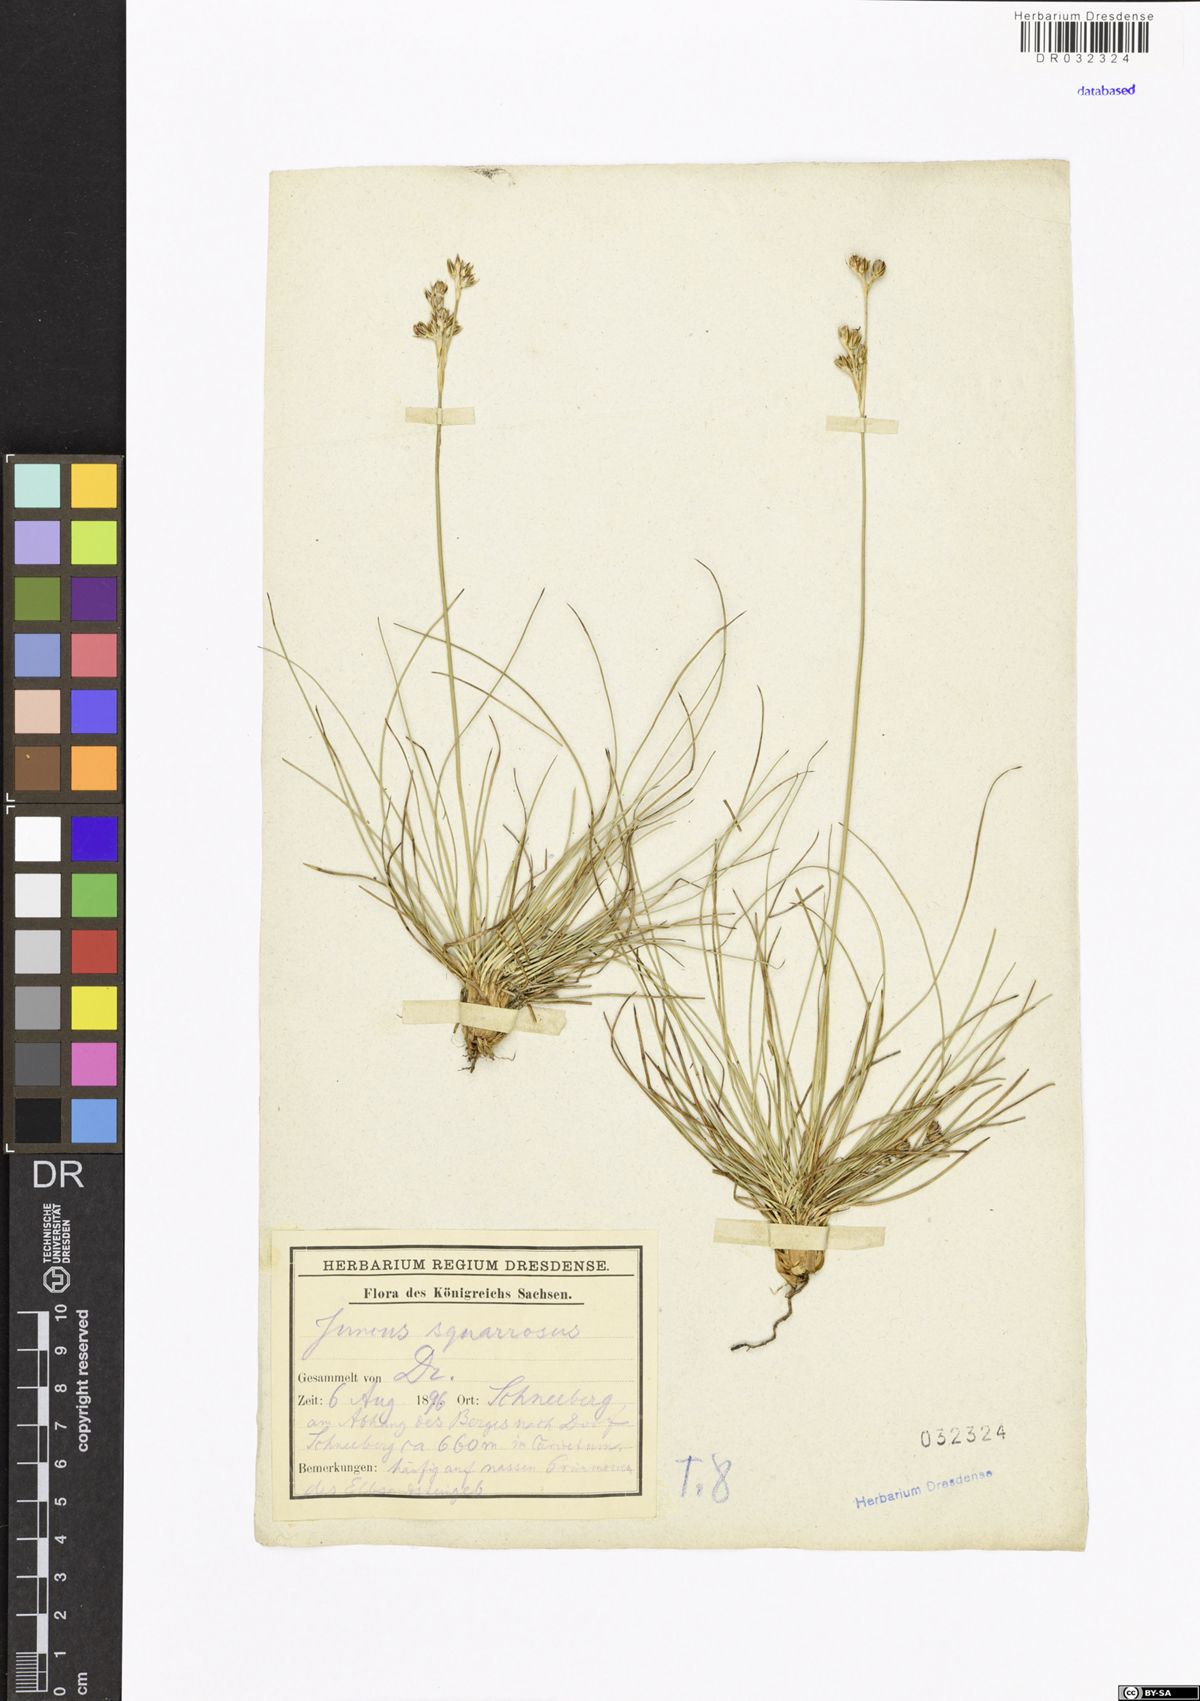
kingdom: Plantae
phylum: Tracheophyta
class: Liliopsida
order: Poales
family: Juncaceae
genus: Juncus
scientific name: Juncus squarrosus
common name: Heath rush
